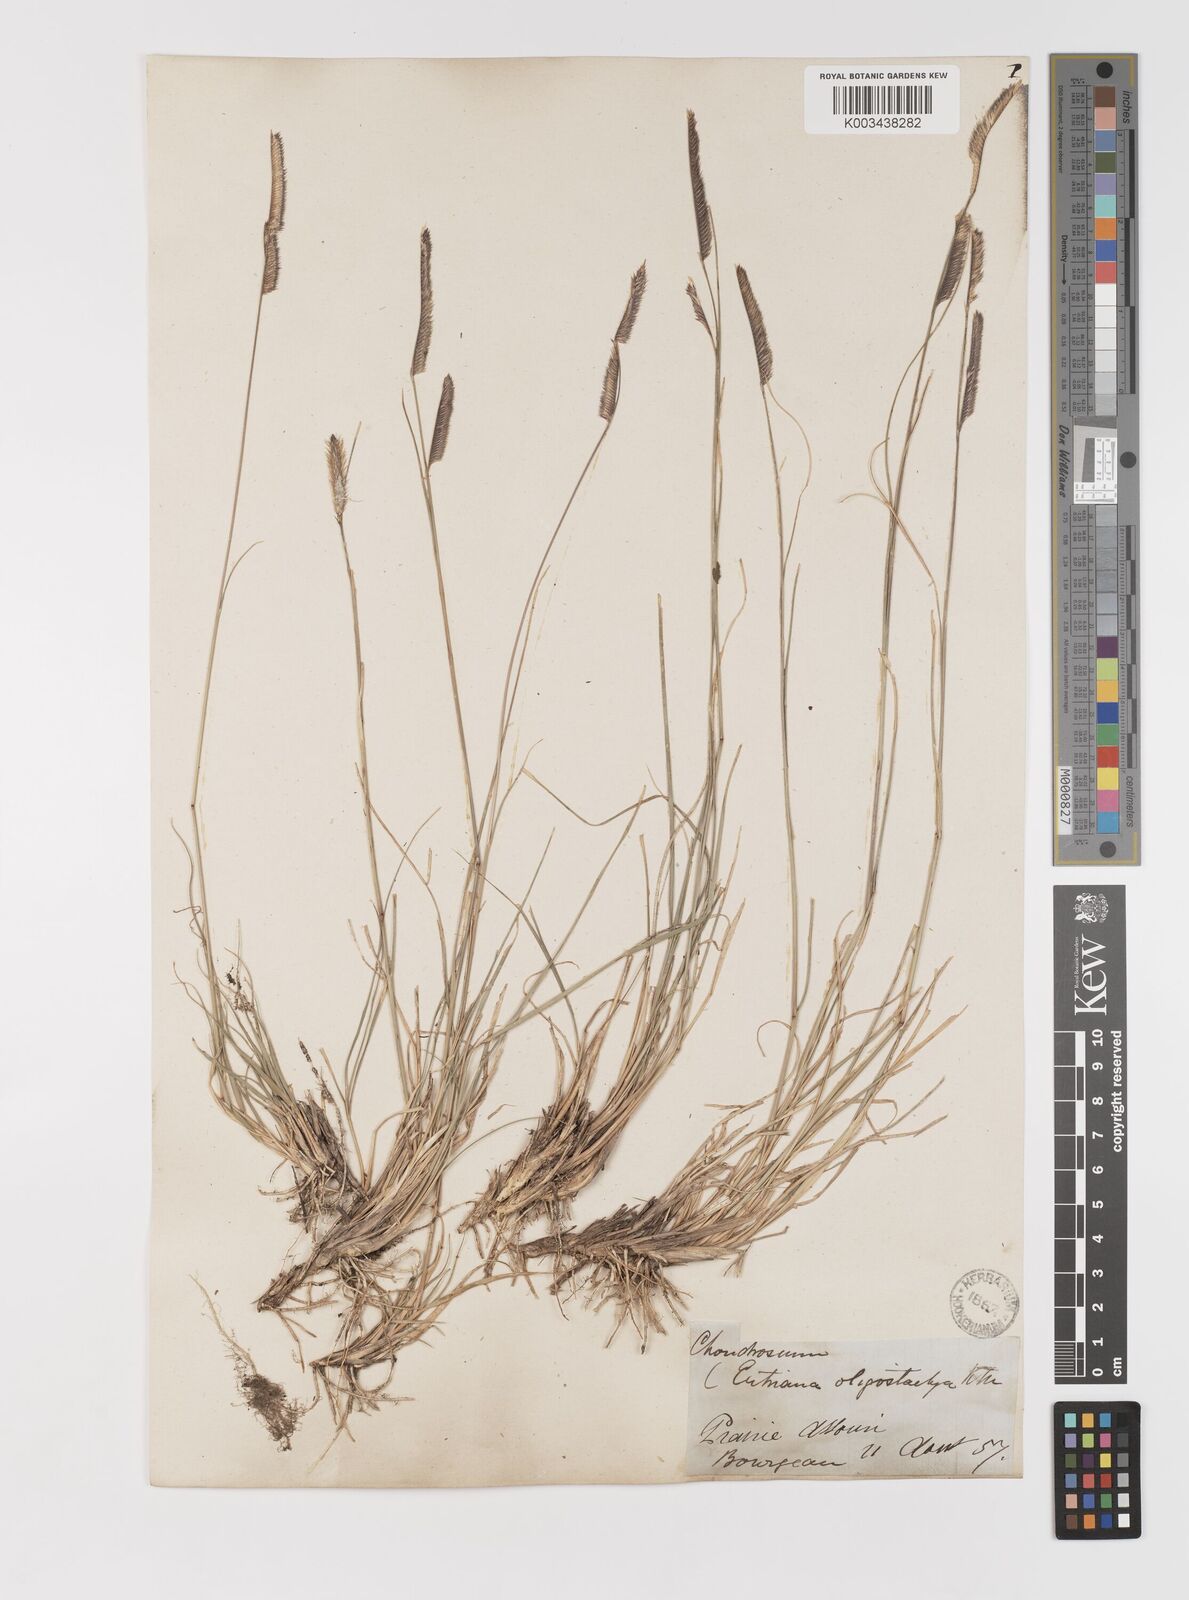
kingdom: Plantae
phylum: Tracheophyta
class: Liliopsida
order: Poales
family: Poaceae
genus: Bouteloua
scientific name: Bouteloua gracilis
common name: Blue grama
